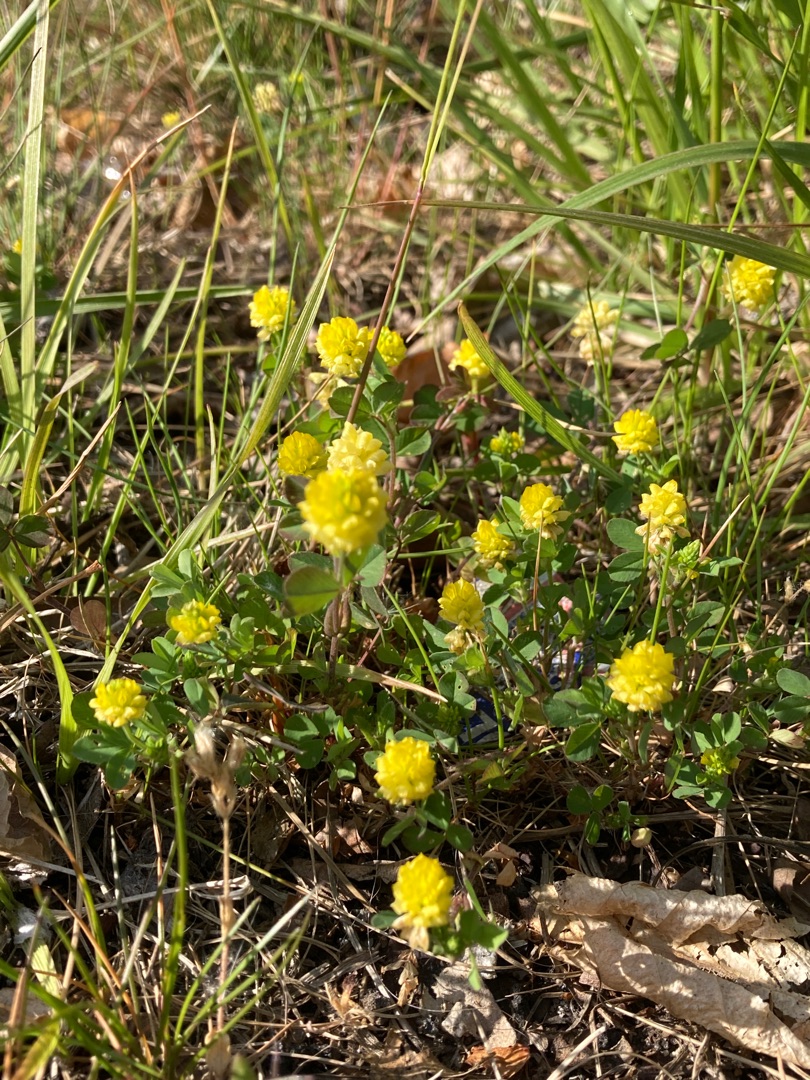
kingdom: Plantae
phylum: Tracheophyta
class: Magnoliopsida
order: Fabales
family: Fabaceae
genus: Trifolium
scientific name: Trifolium campestre
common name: Gul kløver
